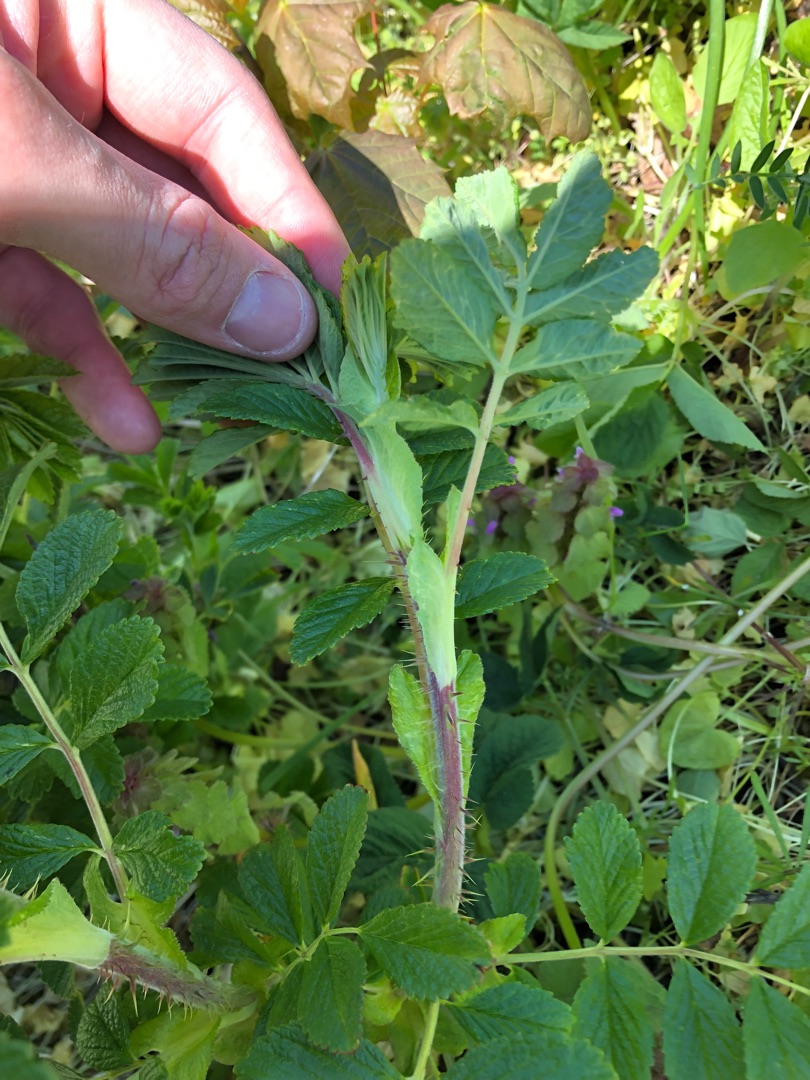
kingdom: Plantae
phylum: Tracheophyta
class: Magnoliopsida
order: Rosales
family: Rosaceae
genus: Rosa
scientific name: Rosa rugosa
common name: Rynket rose
